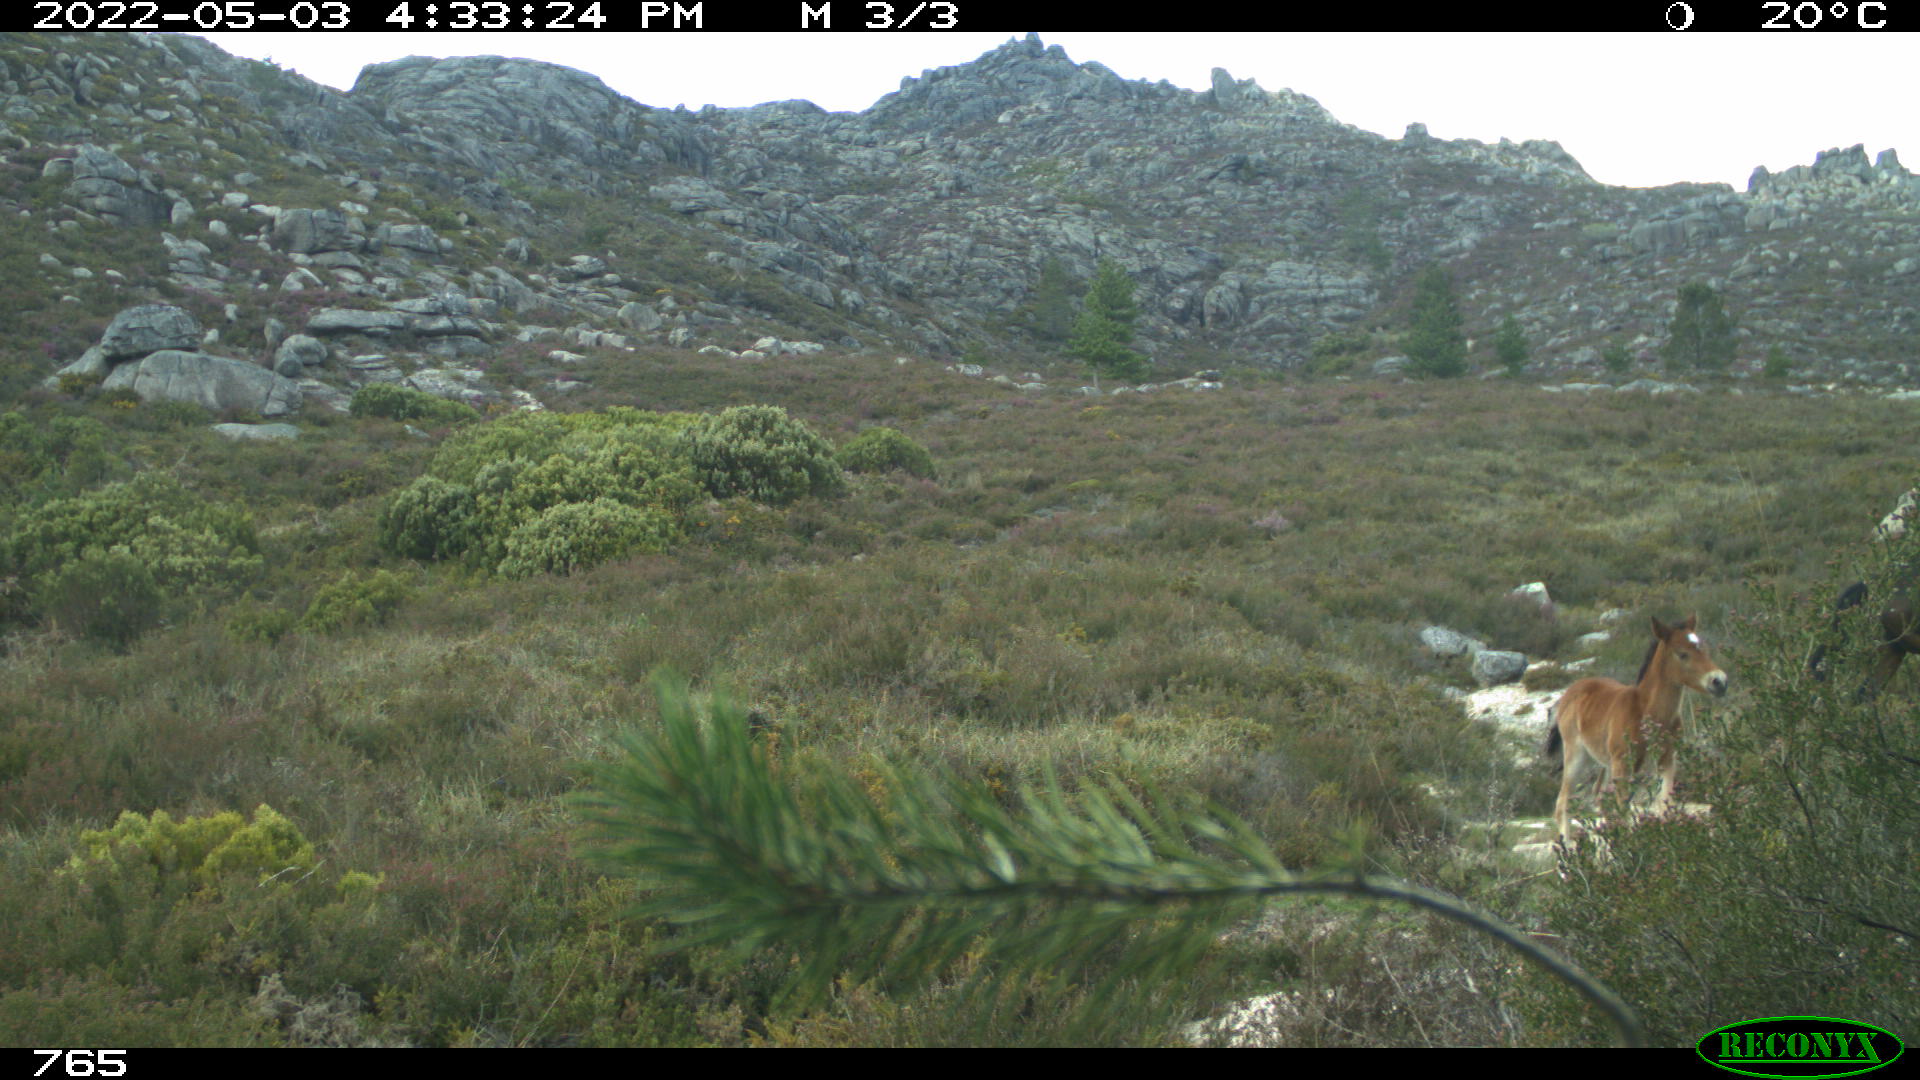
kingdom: Animalia
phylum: Chordata
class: Mammalia
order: Perissodactyla
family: Equidae
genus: Equus
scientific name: Equus caballus
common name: Horse
